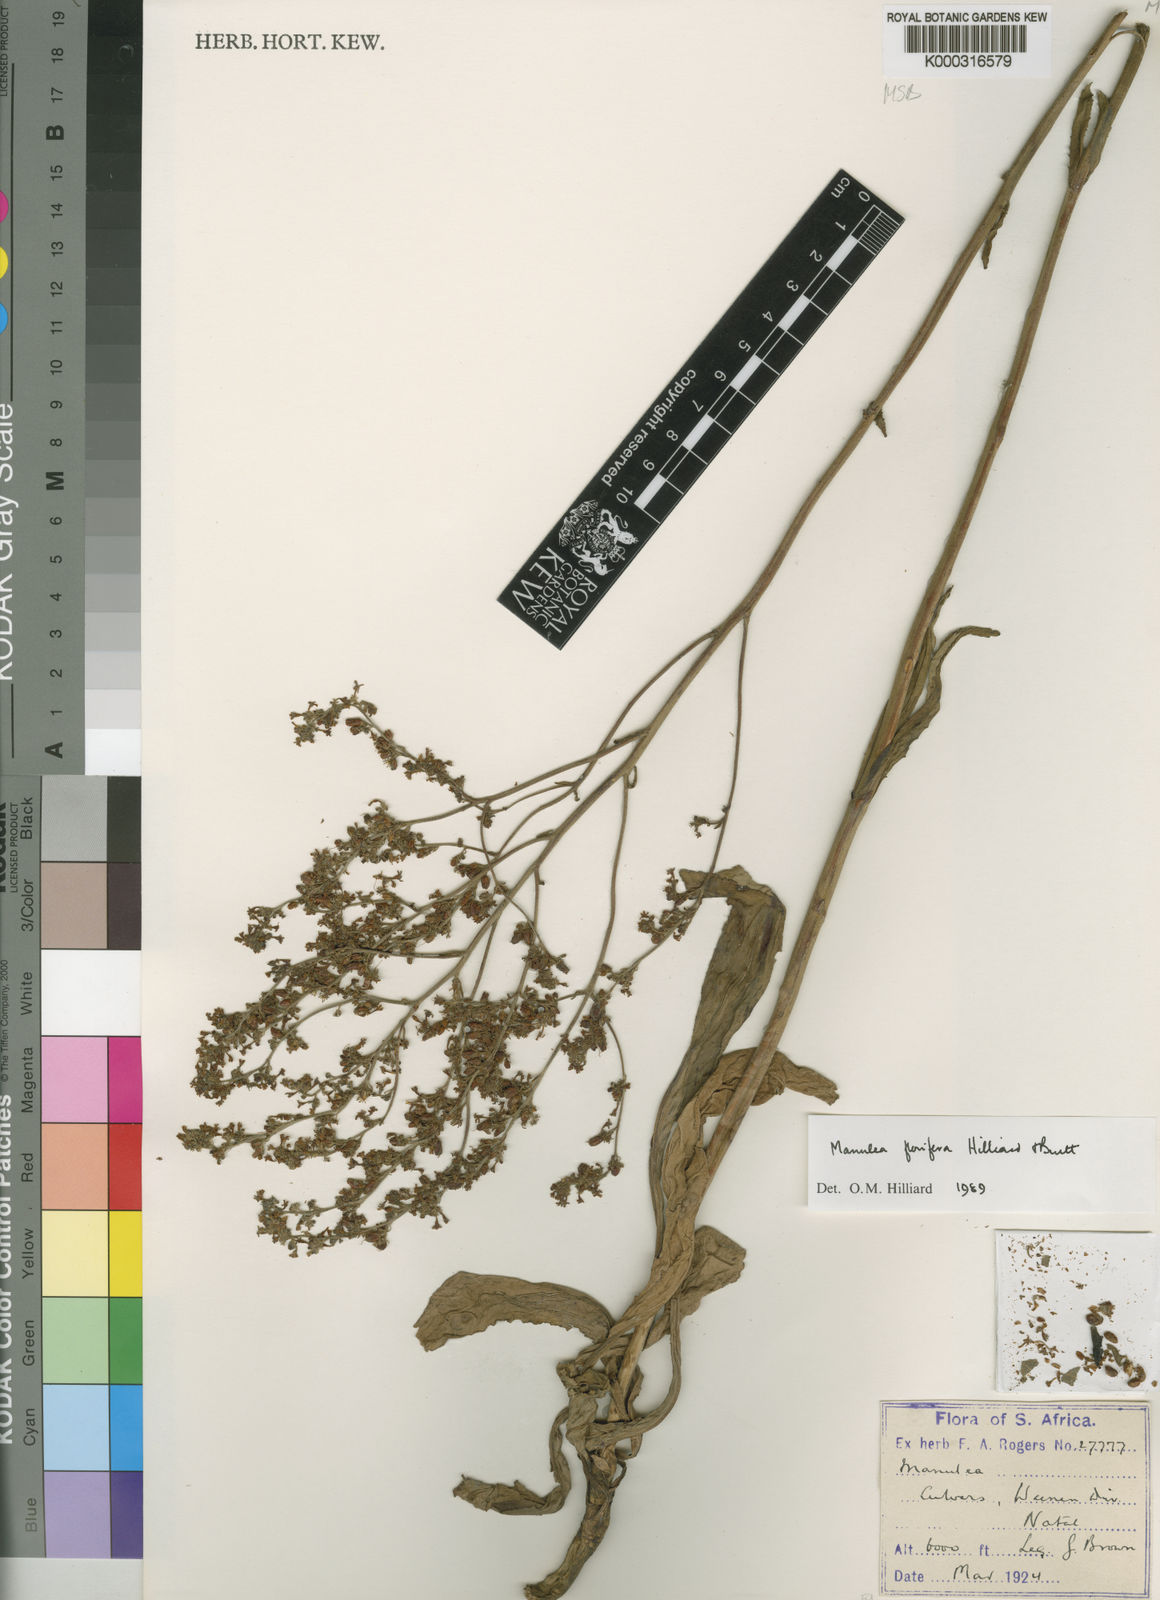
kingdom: Plantae
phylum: Tracheophyta
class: Magnoliopsida
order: Lamiales
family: Scrophulariaceae
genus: Manulea
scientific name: Manulea florifera
